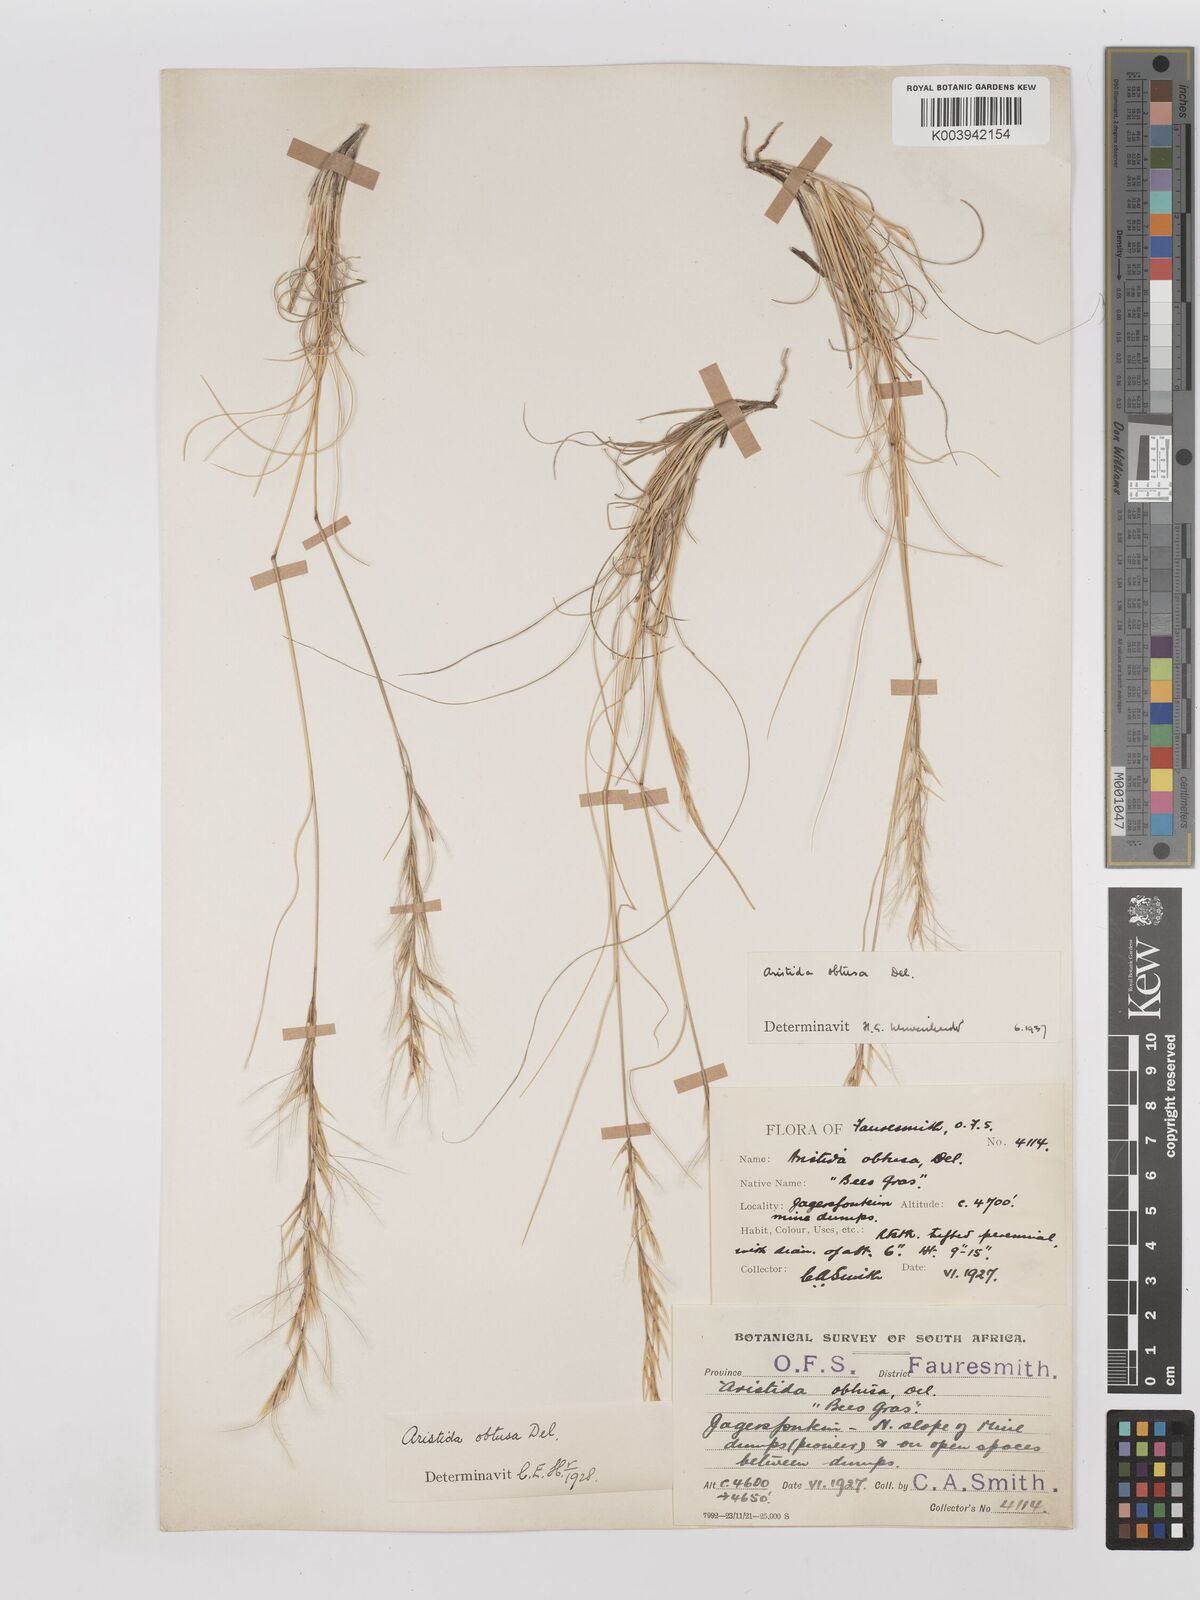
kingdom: Plantae
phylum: Tracheophyta
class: Liliopsida
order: Poales
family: Poaceae
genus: Stipagrostis
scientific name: Stipagrostis obtusa
